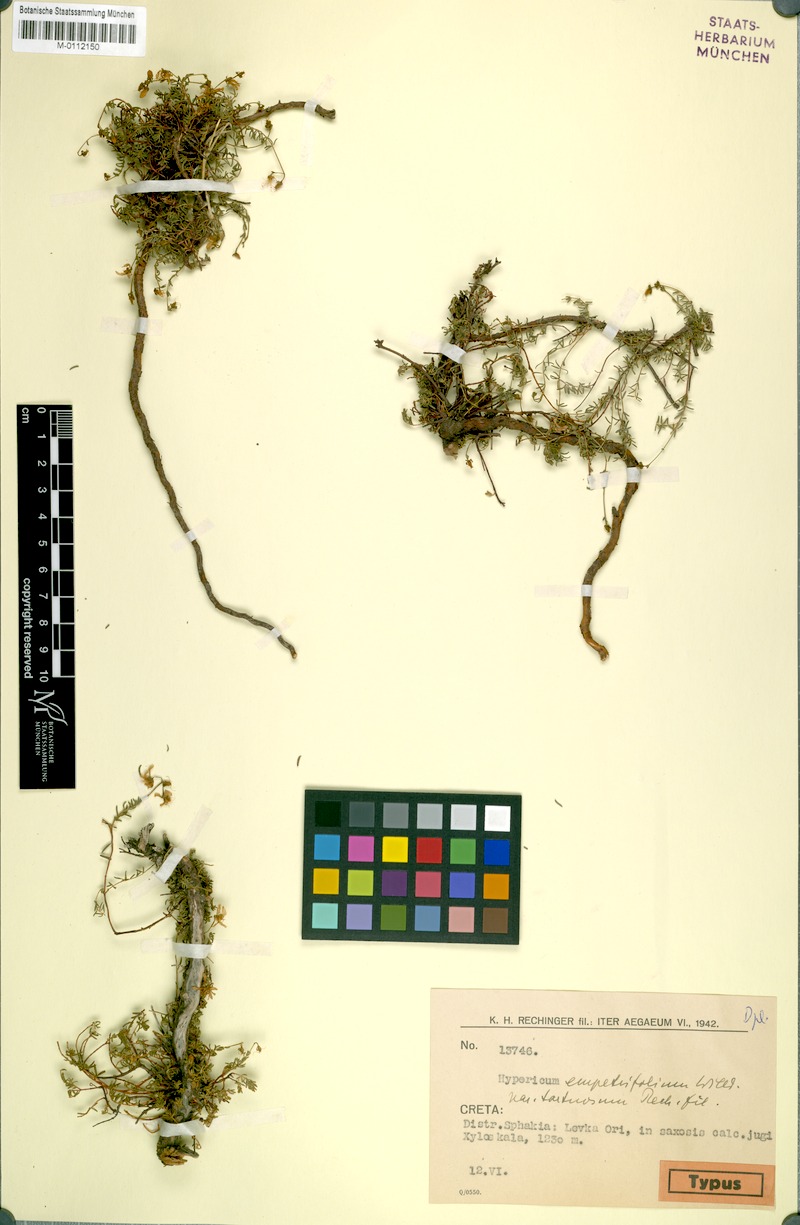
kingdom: Plantae
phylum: Tracheophyta
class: Magnoliopsida
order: Malpighiales
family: Hypericaceae
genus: Hypericum
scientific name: Hypericum empetrifolium
